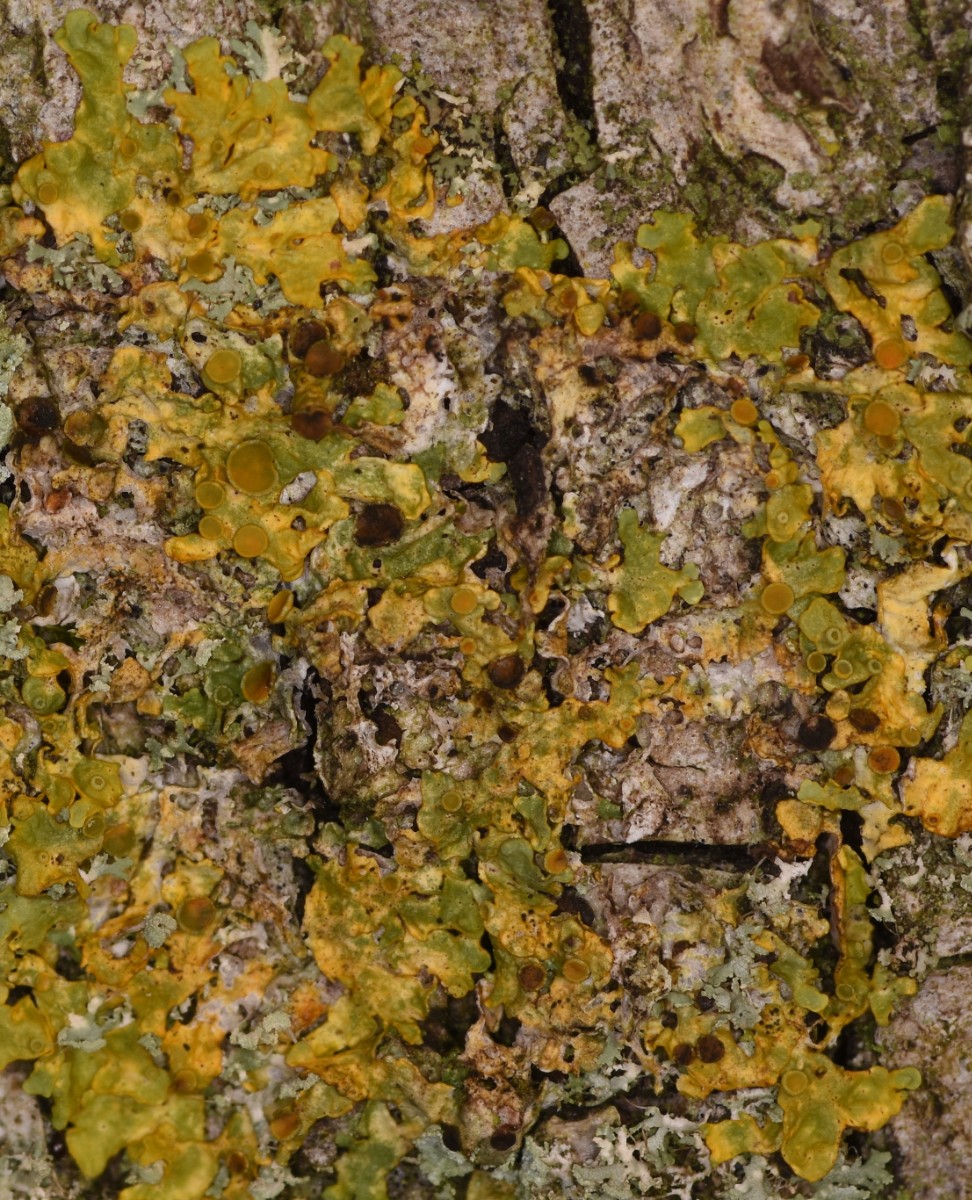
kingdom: Fungi
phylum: Ascomycota
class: Lecanoromycetes
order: Teloschistales
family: Teloschistaceae
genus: Xanthoria
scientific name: Xanthoria parietina
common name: almindelig væggelav
